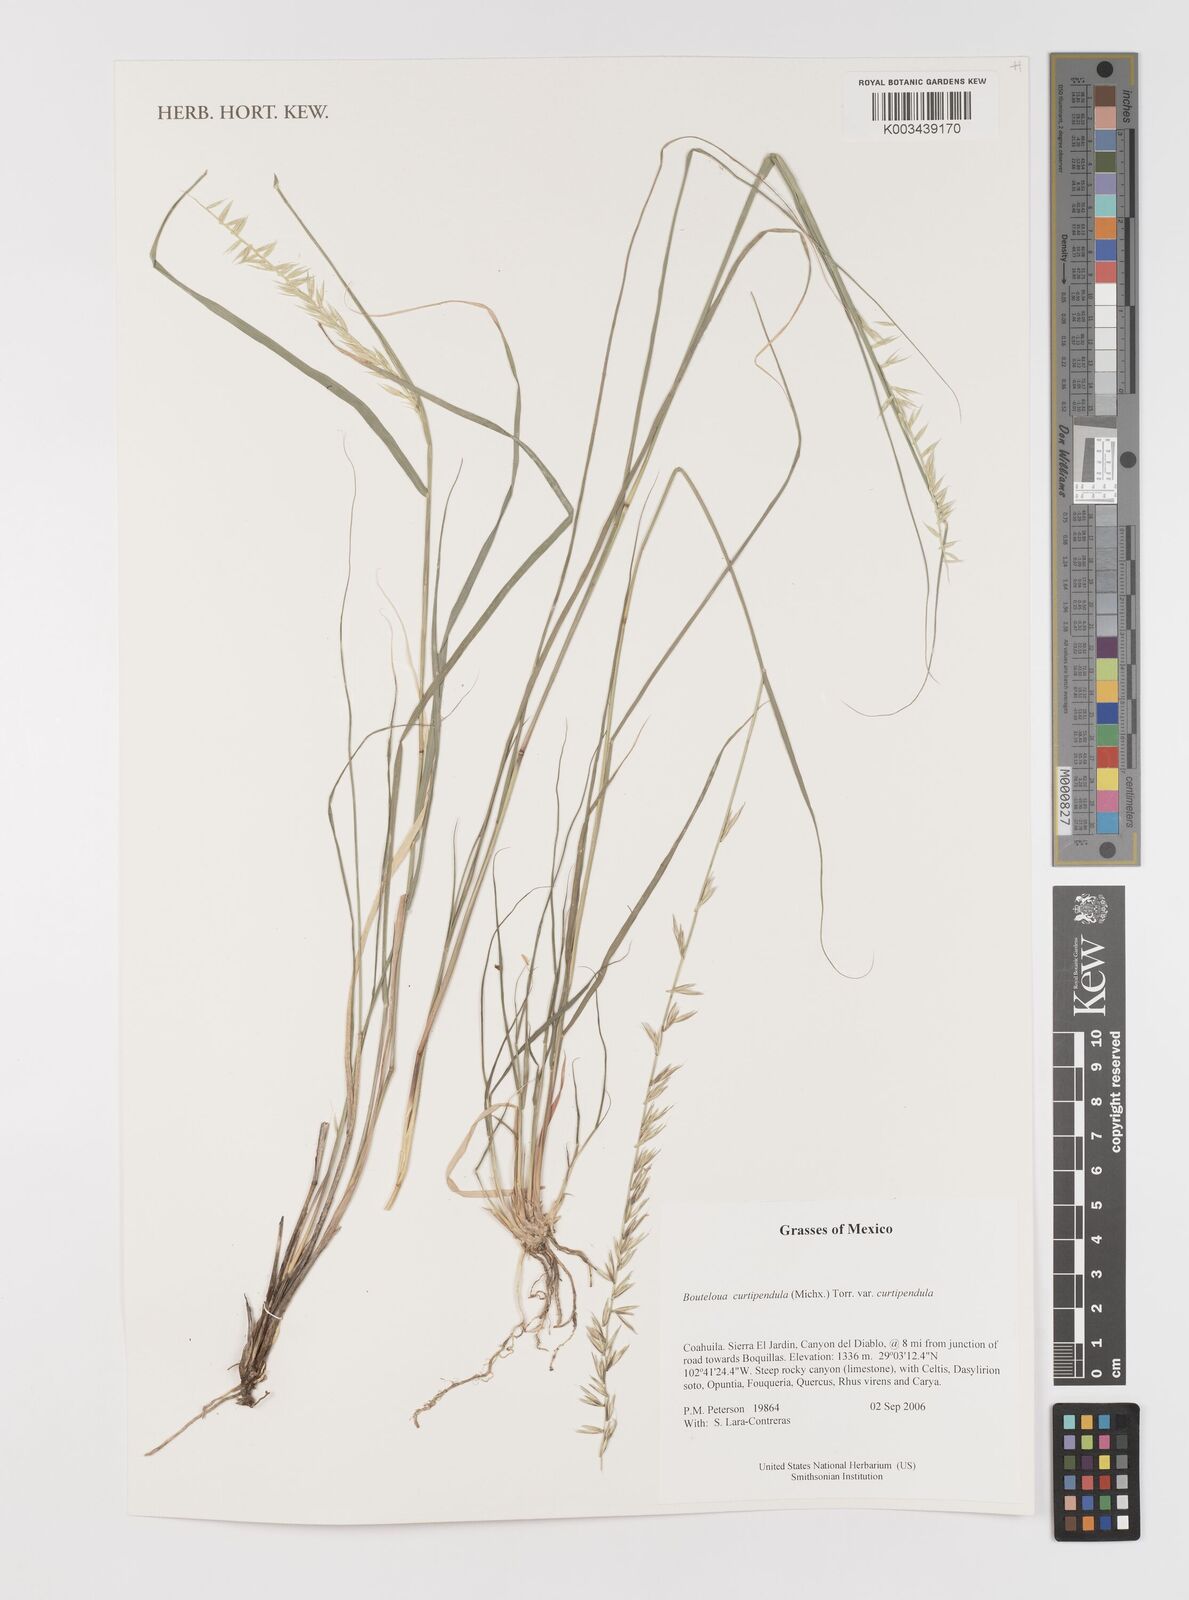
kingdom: Plantae
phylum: Tracheophyta
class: Liliopsida
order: Poales
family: Poaceae
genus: Bouteloua
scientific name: Bouteloua curtipendula
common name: Side-oats grama
